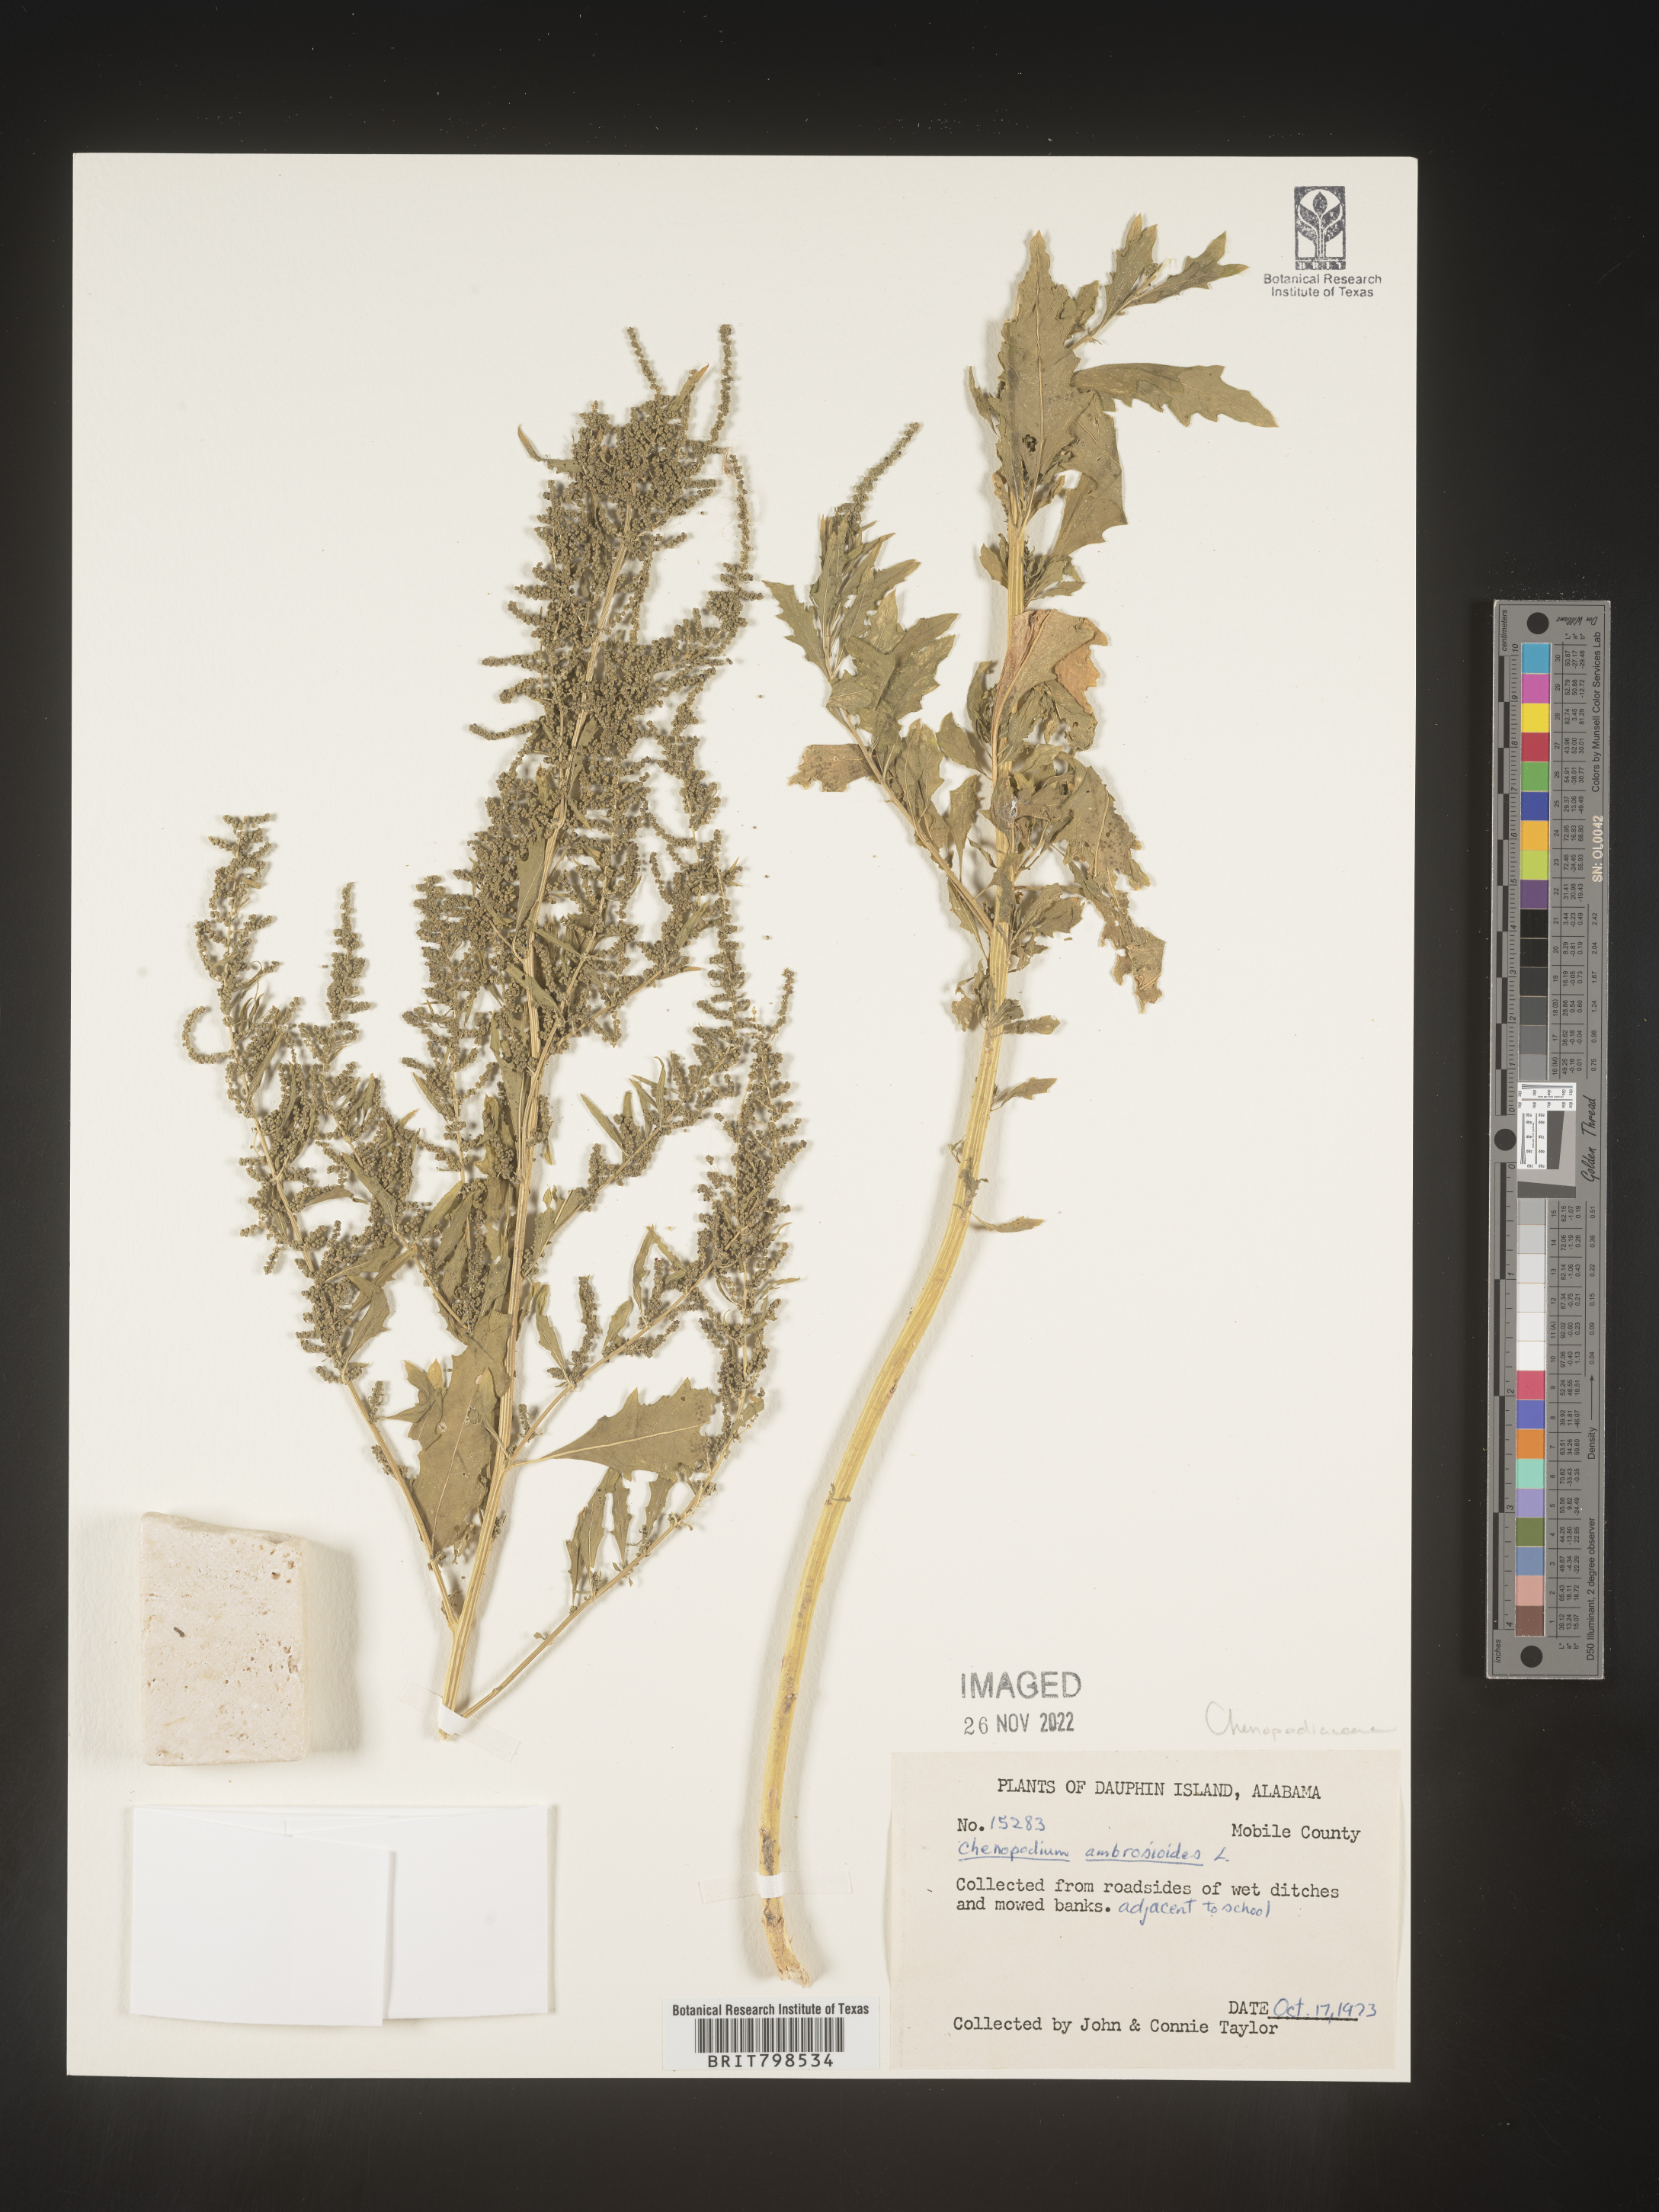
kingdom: Plantae
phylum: Tracheophyta
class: Magnoliopsida
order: Caryophyllales
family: Amaranthaceae
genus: Dysphania
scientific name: Dysphania ambrosioides
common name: Wormseed
